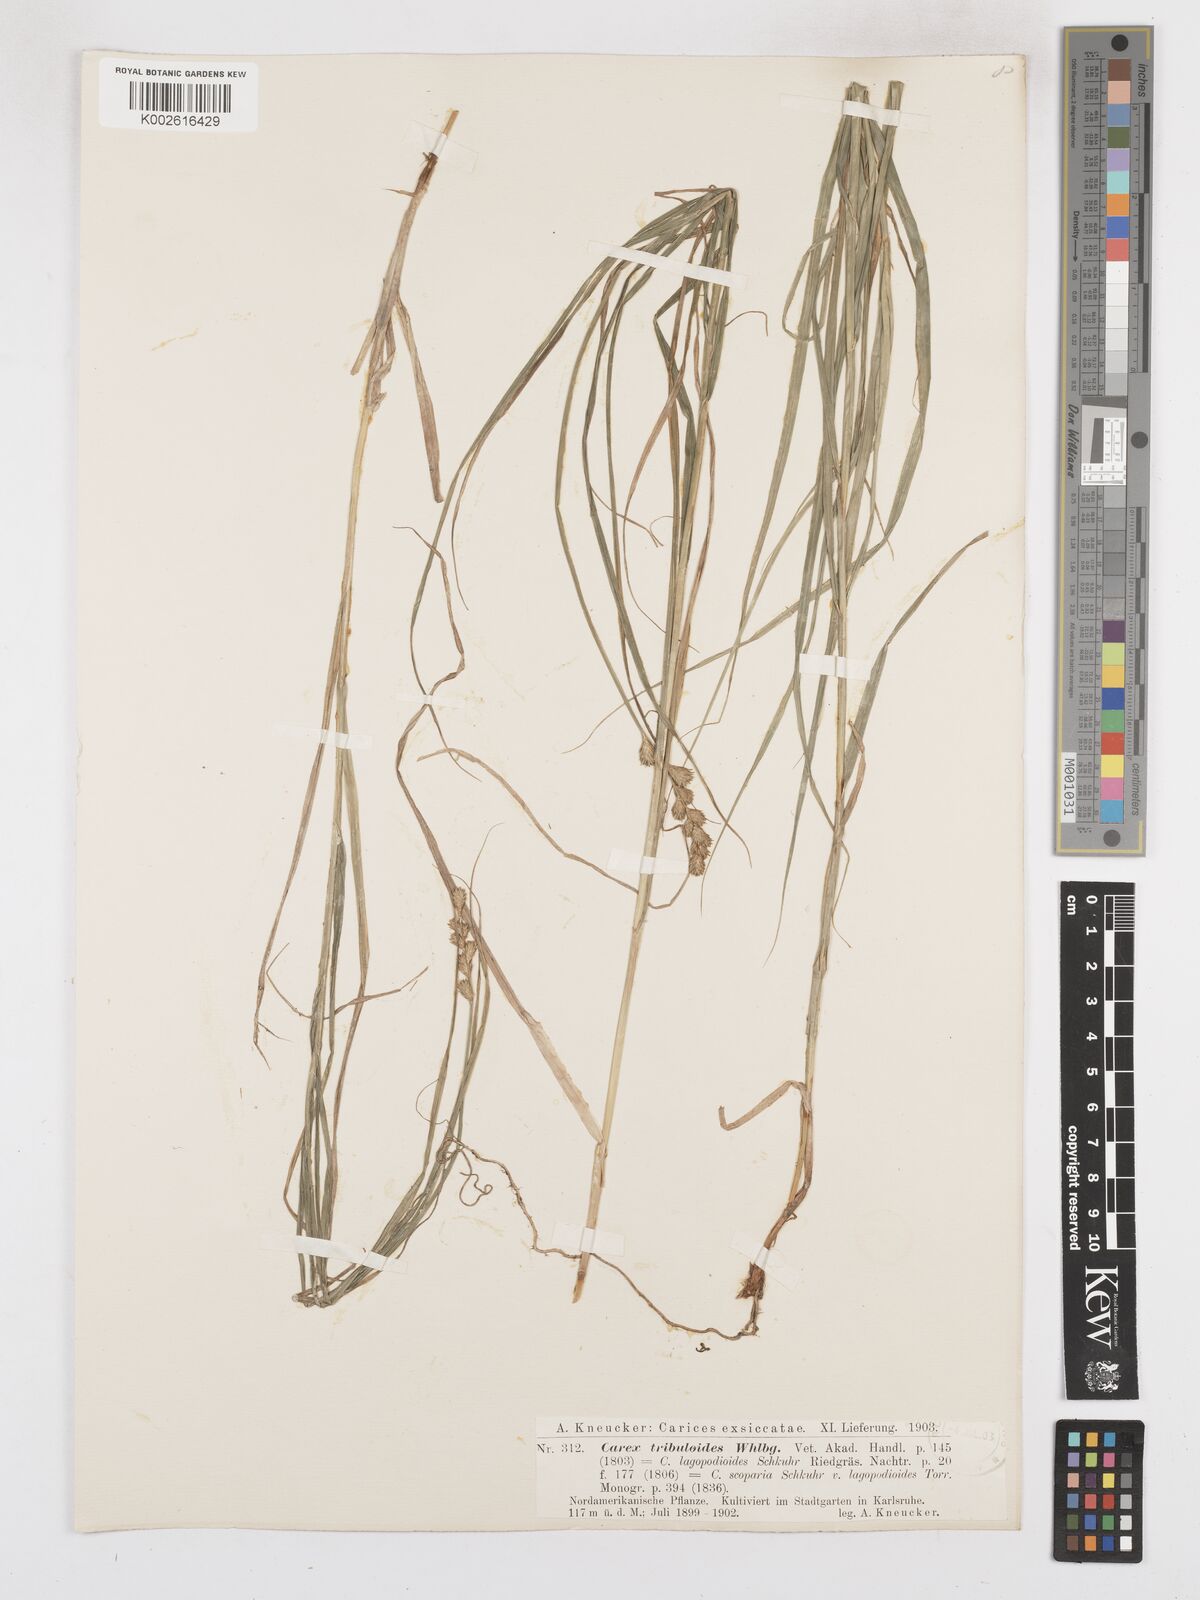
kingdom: Plantae
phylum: Tracheophyta
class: Liliopsida
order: Poales
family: Cyperaceae
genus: Carex
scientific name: Carex tribuloides
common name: Blunt broom sedge
